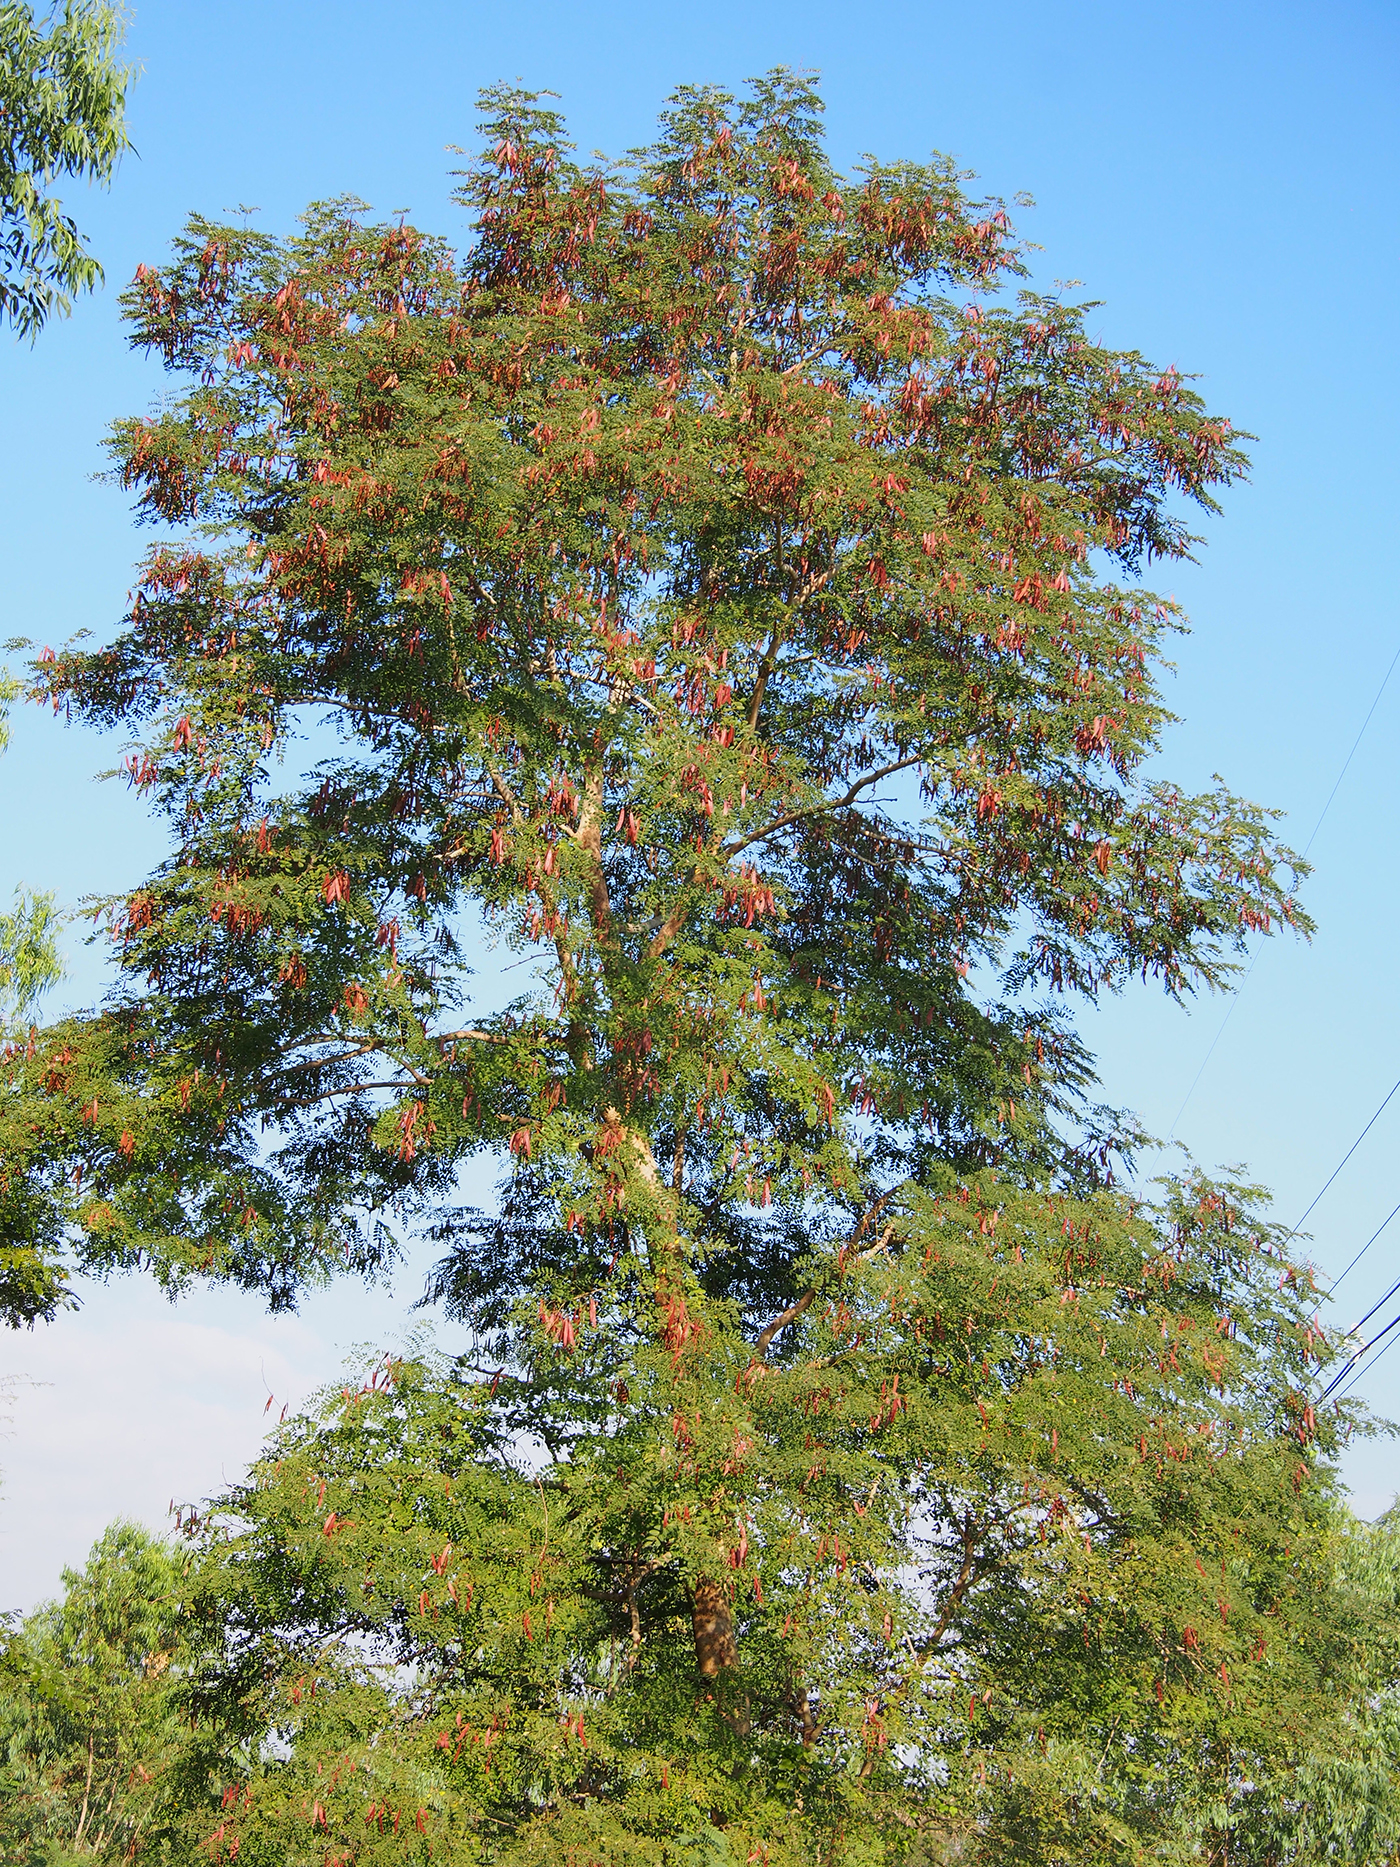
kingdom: Plantae
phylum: Tracheophyta
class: Magnoliopsida
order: Fabales
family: Fabaceae
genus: Albizia
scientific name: Albizia procera
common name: Tall albizia
